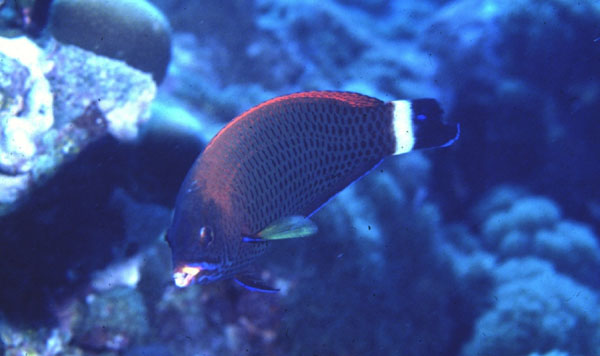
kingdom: Animalia
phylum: Chordata
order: Perciformes
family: Labridae
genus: Pseudodax
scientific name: Pseudodax moluccanus
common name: Chiseltooth wrasse
